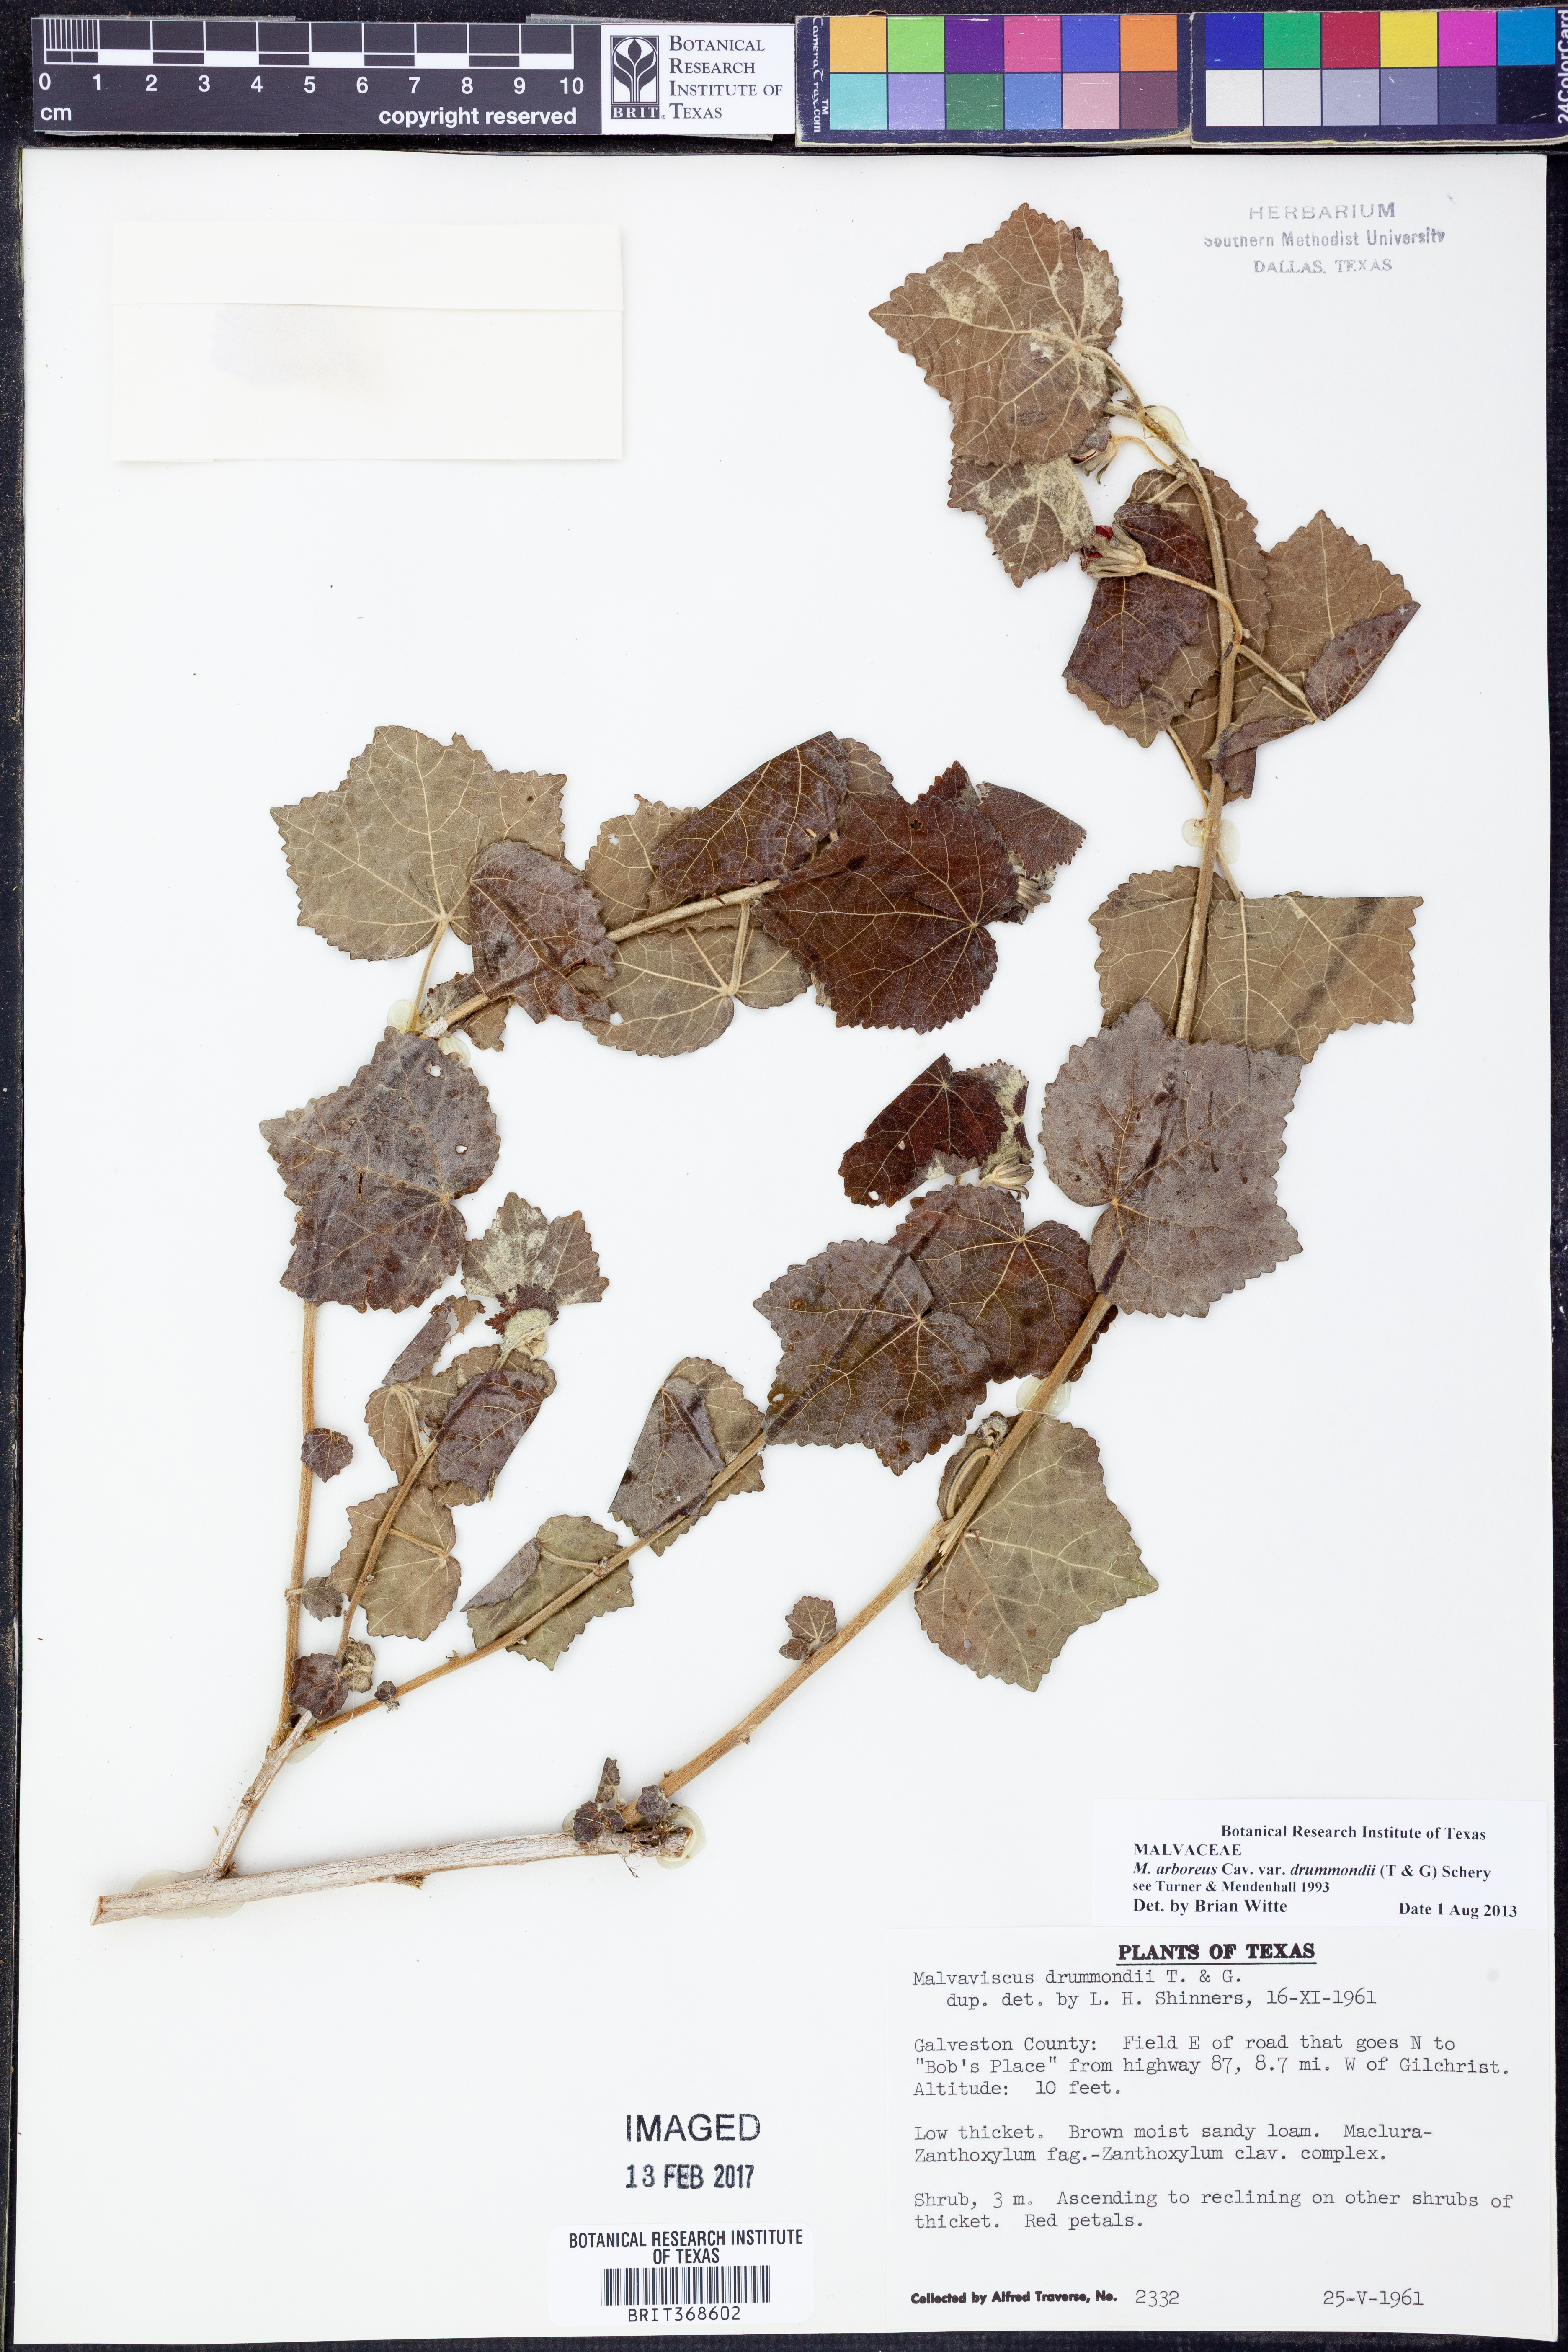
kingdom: Plantae
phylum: Tracheophyta
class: Magnoliopsida
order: Malvales
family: Malvaceae
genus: Malvaviscus
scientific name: Malvaviscus arboreus
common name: Wax mallow
